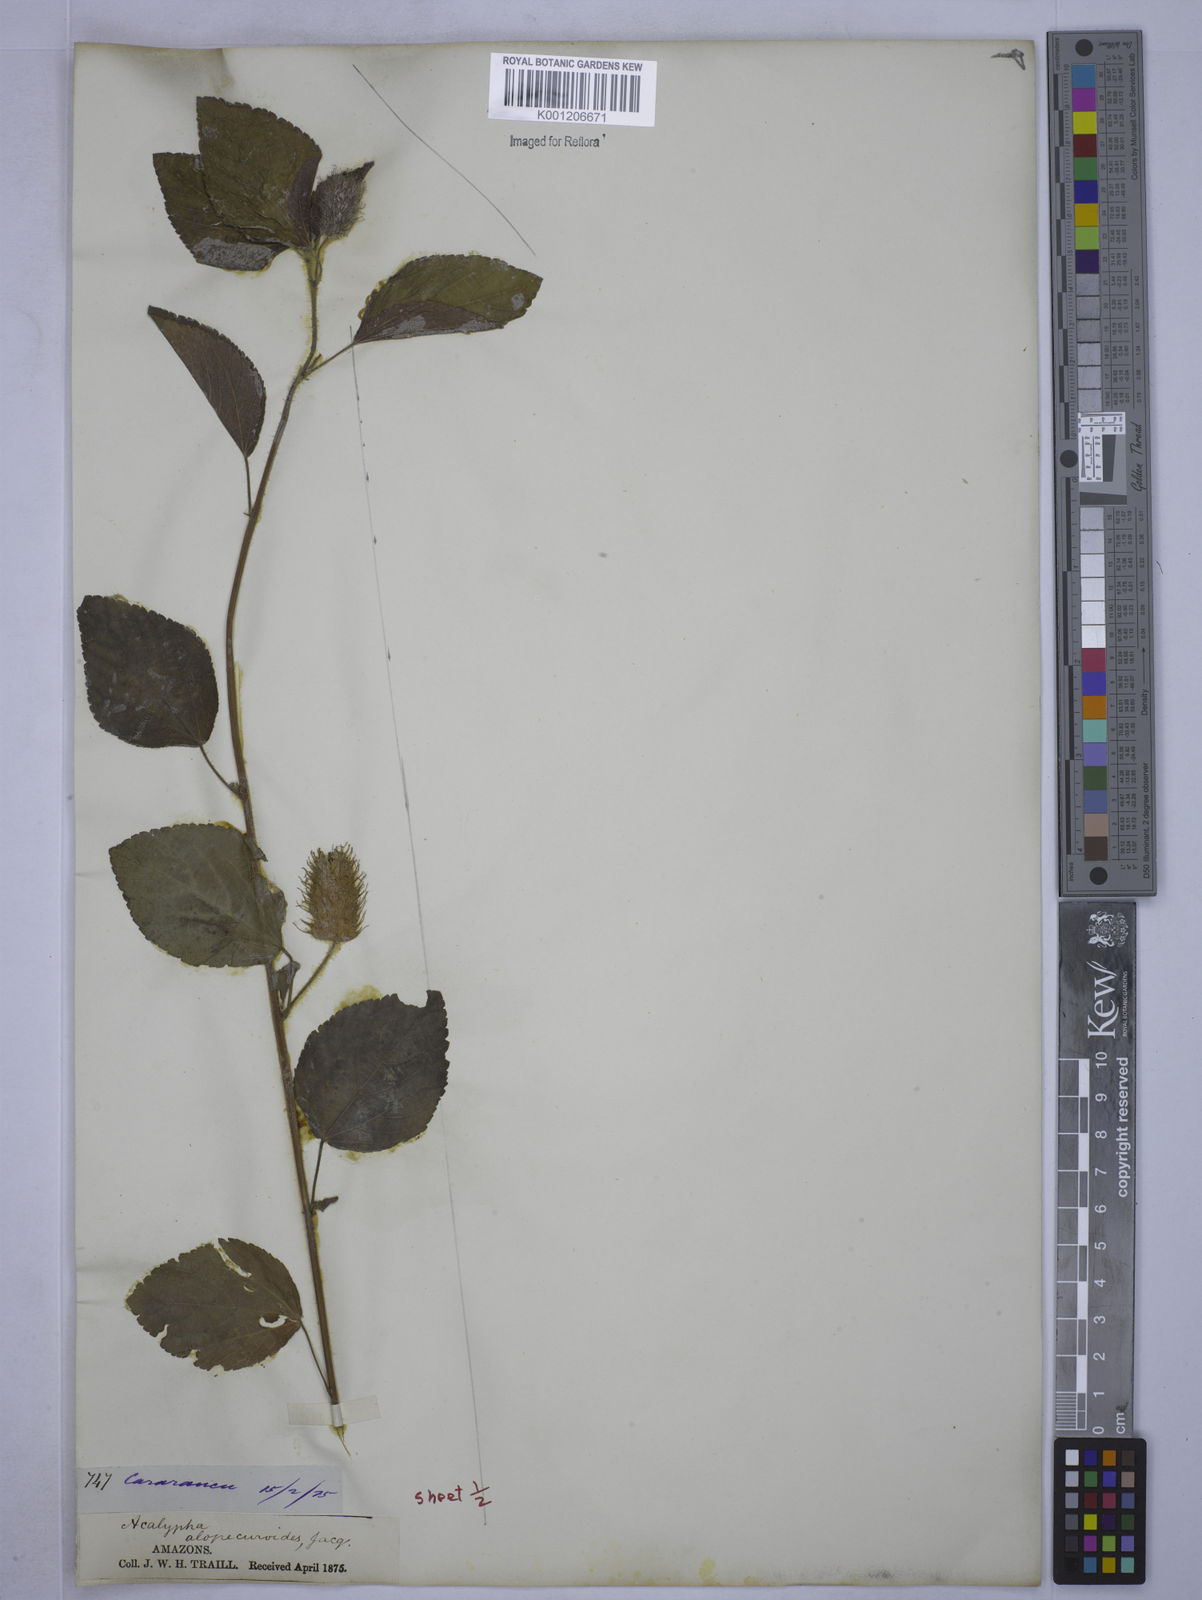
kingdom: Plantae
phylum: Tracheophyta
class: Magnoliopsida
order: Malpighiales
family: Euphorbiaceae
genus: Acalypha
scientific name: Acalypha arvensis
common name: Field copperleaf
